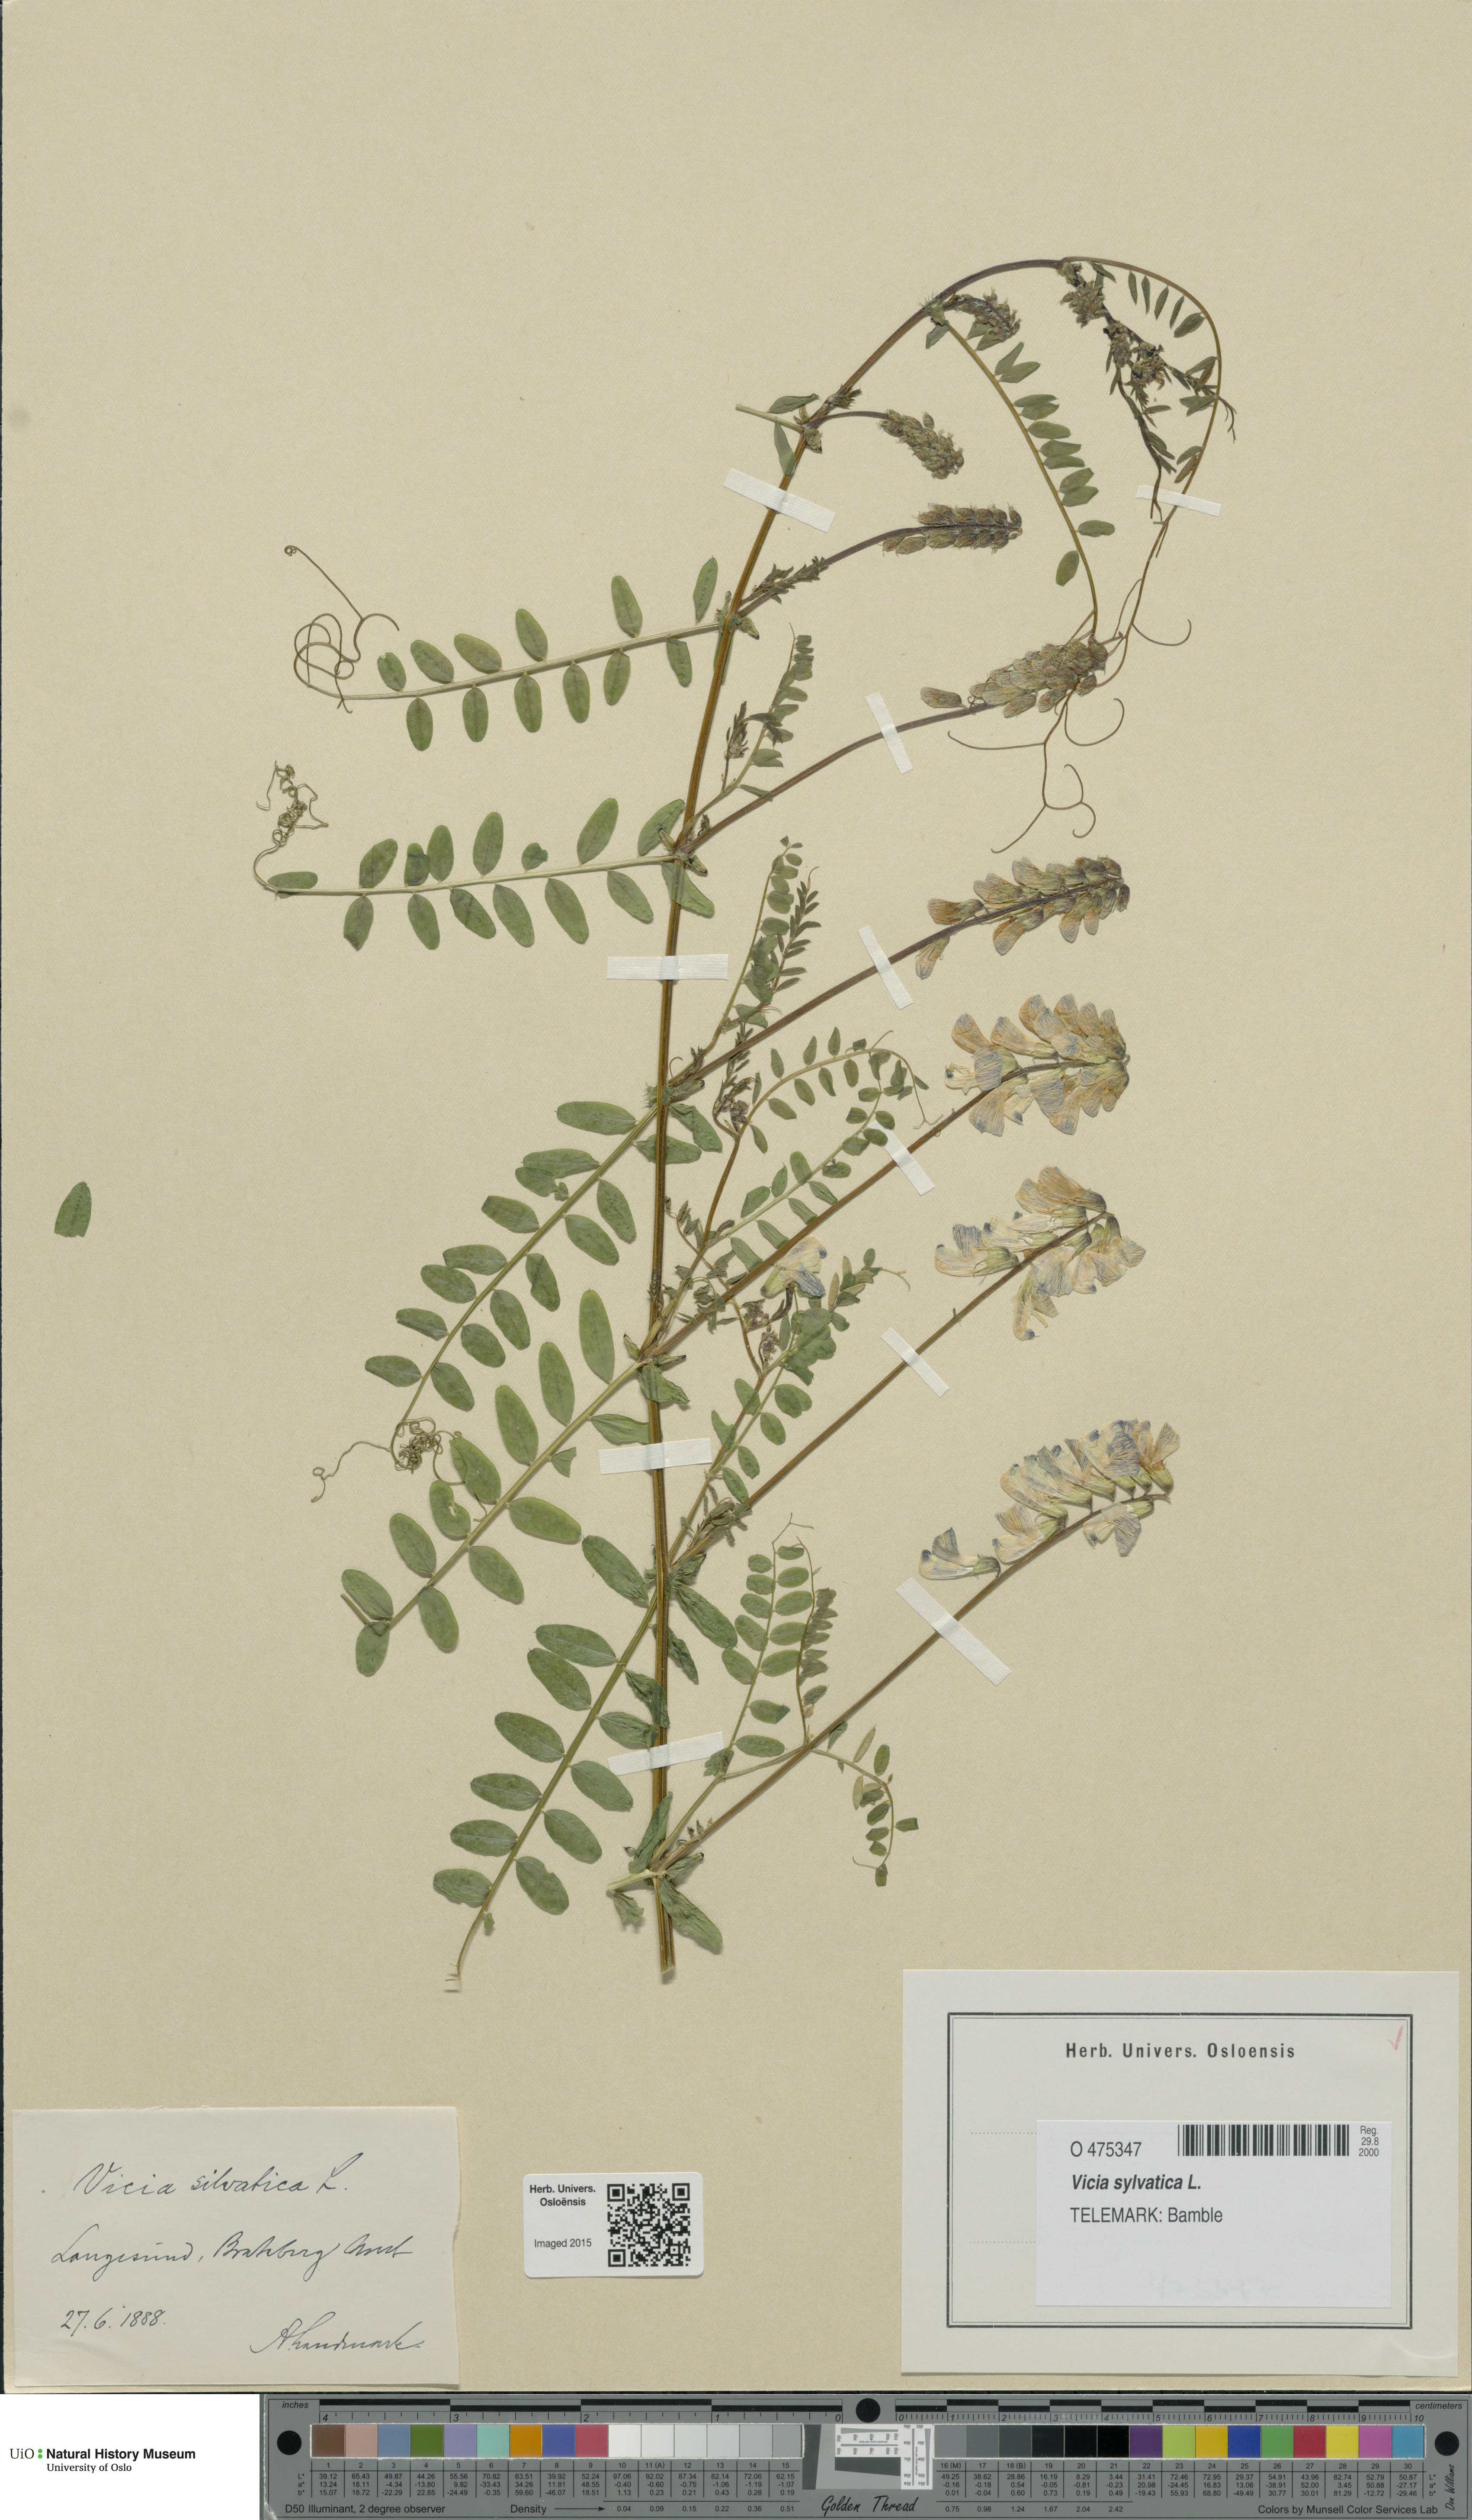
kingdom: Plantae
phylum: Tracheophyta
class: Magnoliopsida
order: Fabales
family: Fabaceae
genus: Vicia
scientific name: Vicia sylvatica
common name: Wood vetch
